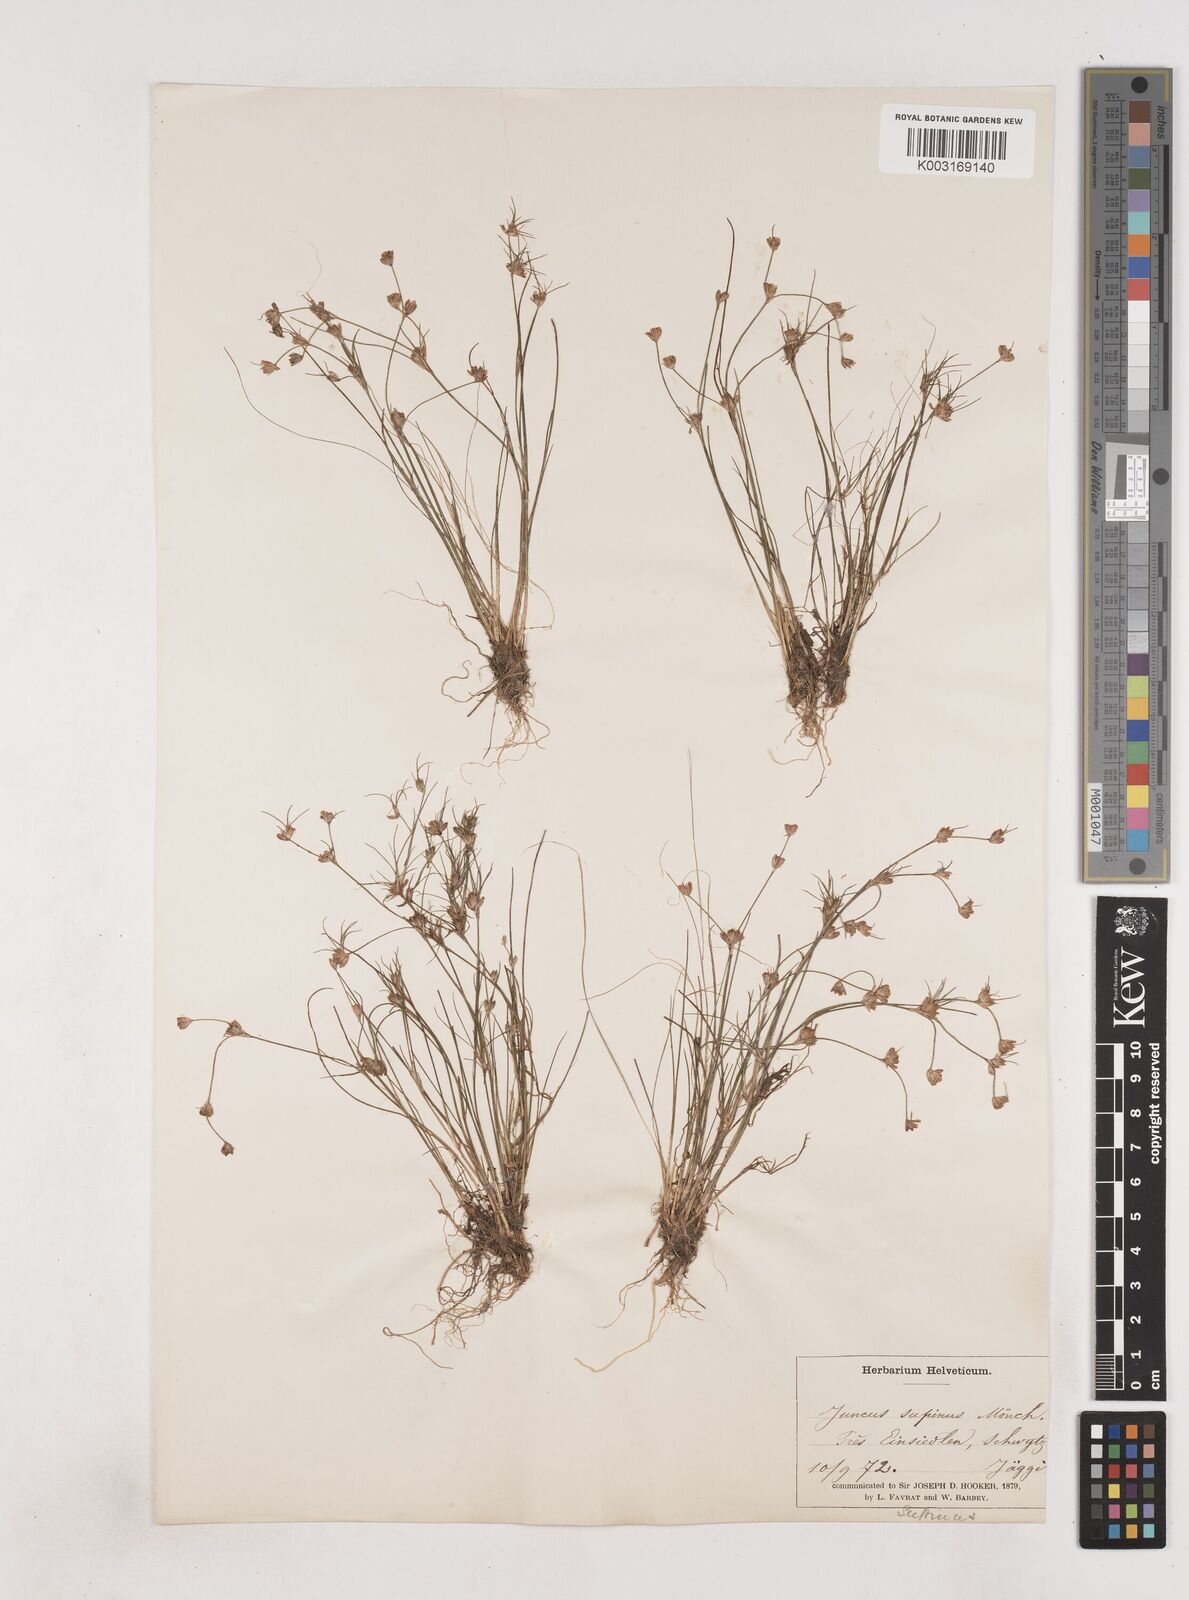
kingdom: Plantae
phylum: Tracheophyta
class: Liliopsida
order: Poales
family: Juncaceae
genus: Juncus
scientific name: Juncus bulbosus
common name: Bulbous rush
